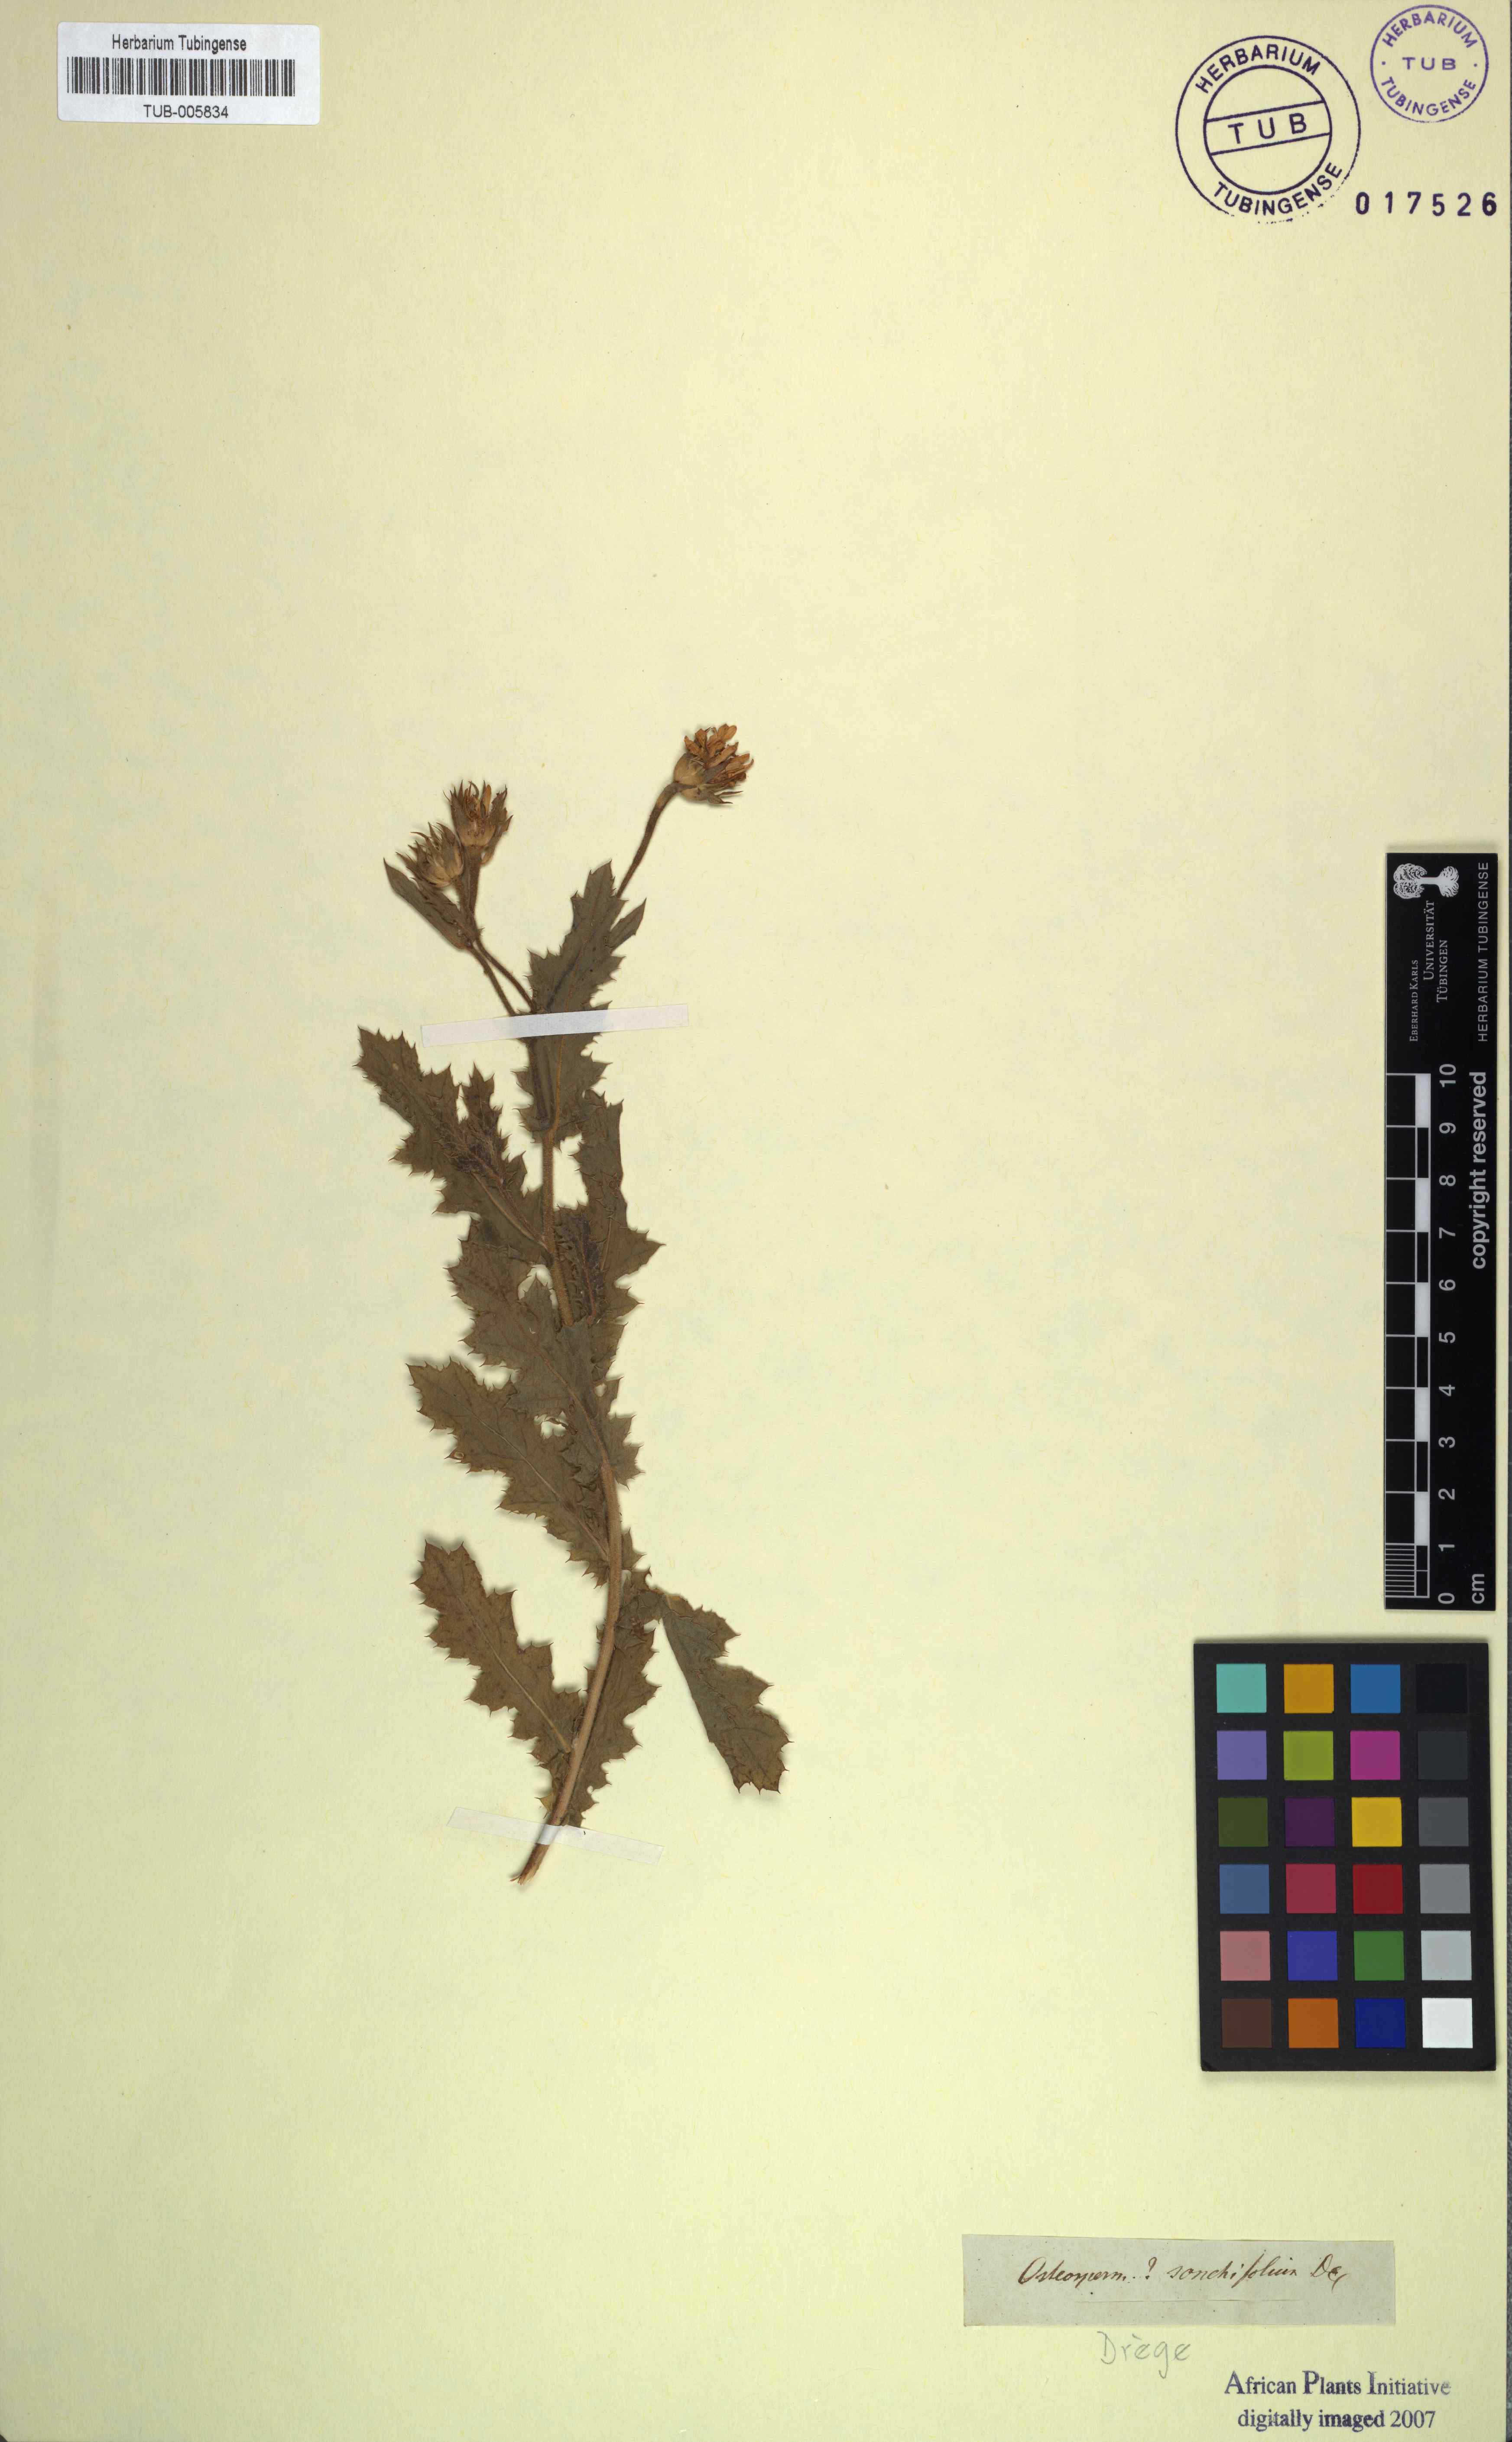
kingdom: Plantae
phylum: Tracheophyta
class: Magnoliopsida
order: Asterales
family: Asteraceae
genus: Garuleum
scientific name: Garuleum sonchifolium
